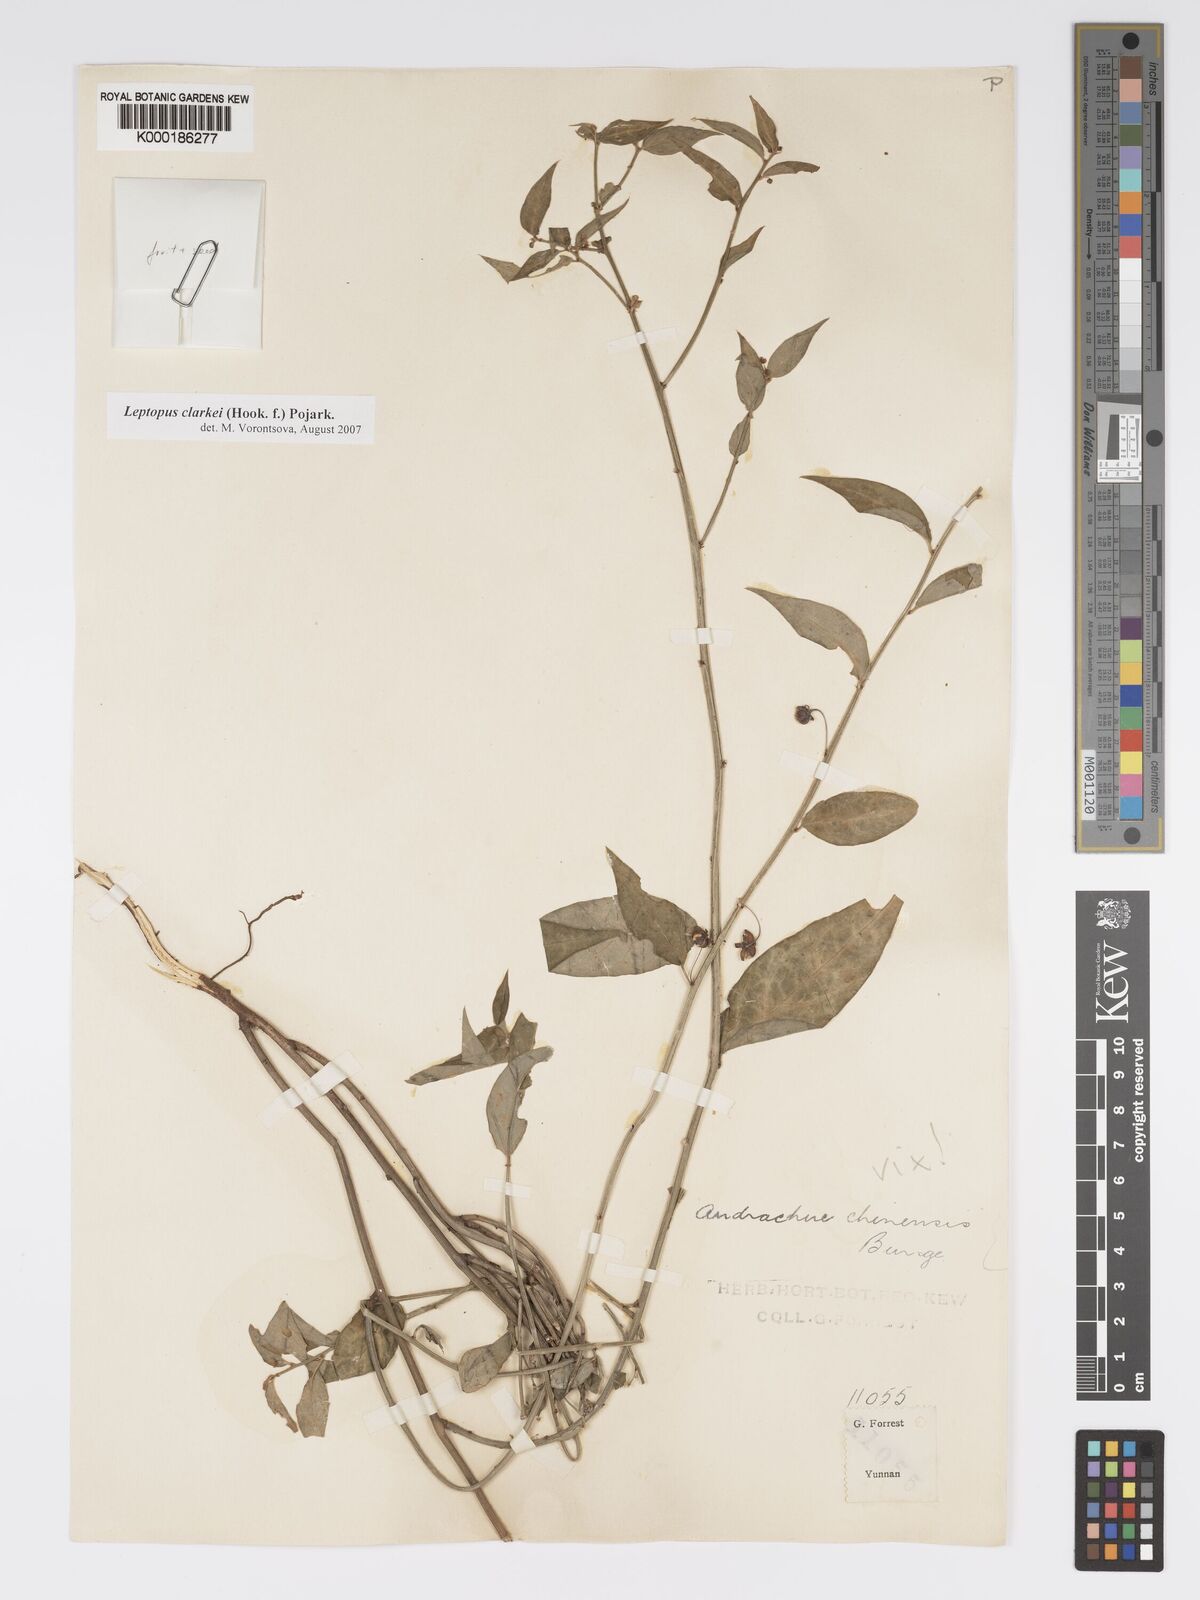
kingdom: Plantae
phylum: Tracheophyta
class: Magnoliopsida
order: Malpighiales
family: Phyllanthaceae
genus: Leptopus
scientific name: Leptopus chinensis
